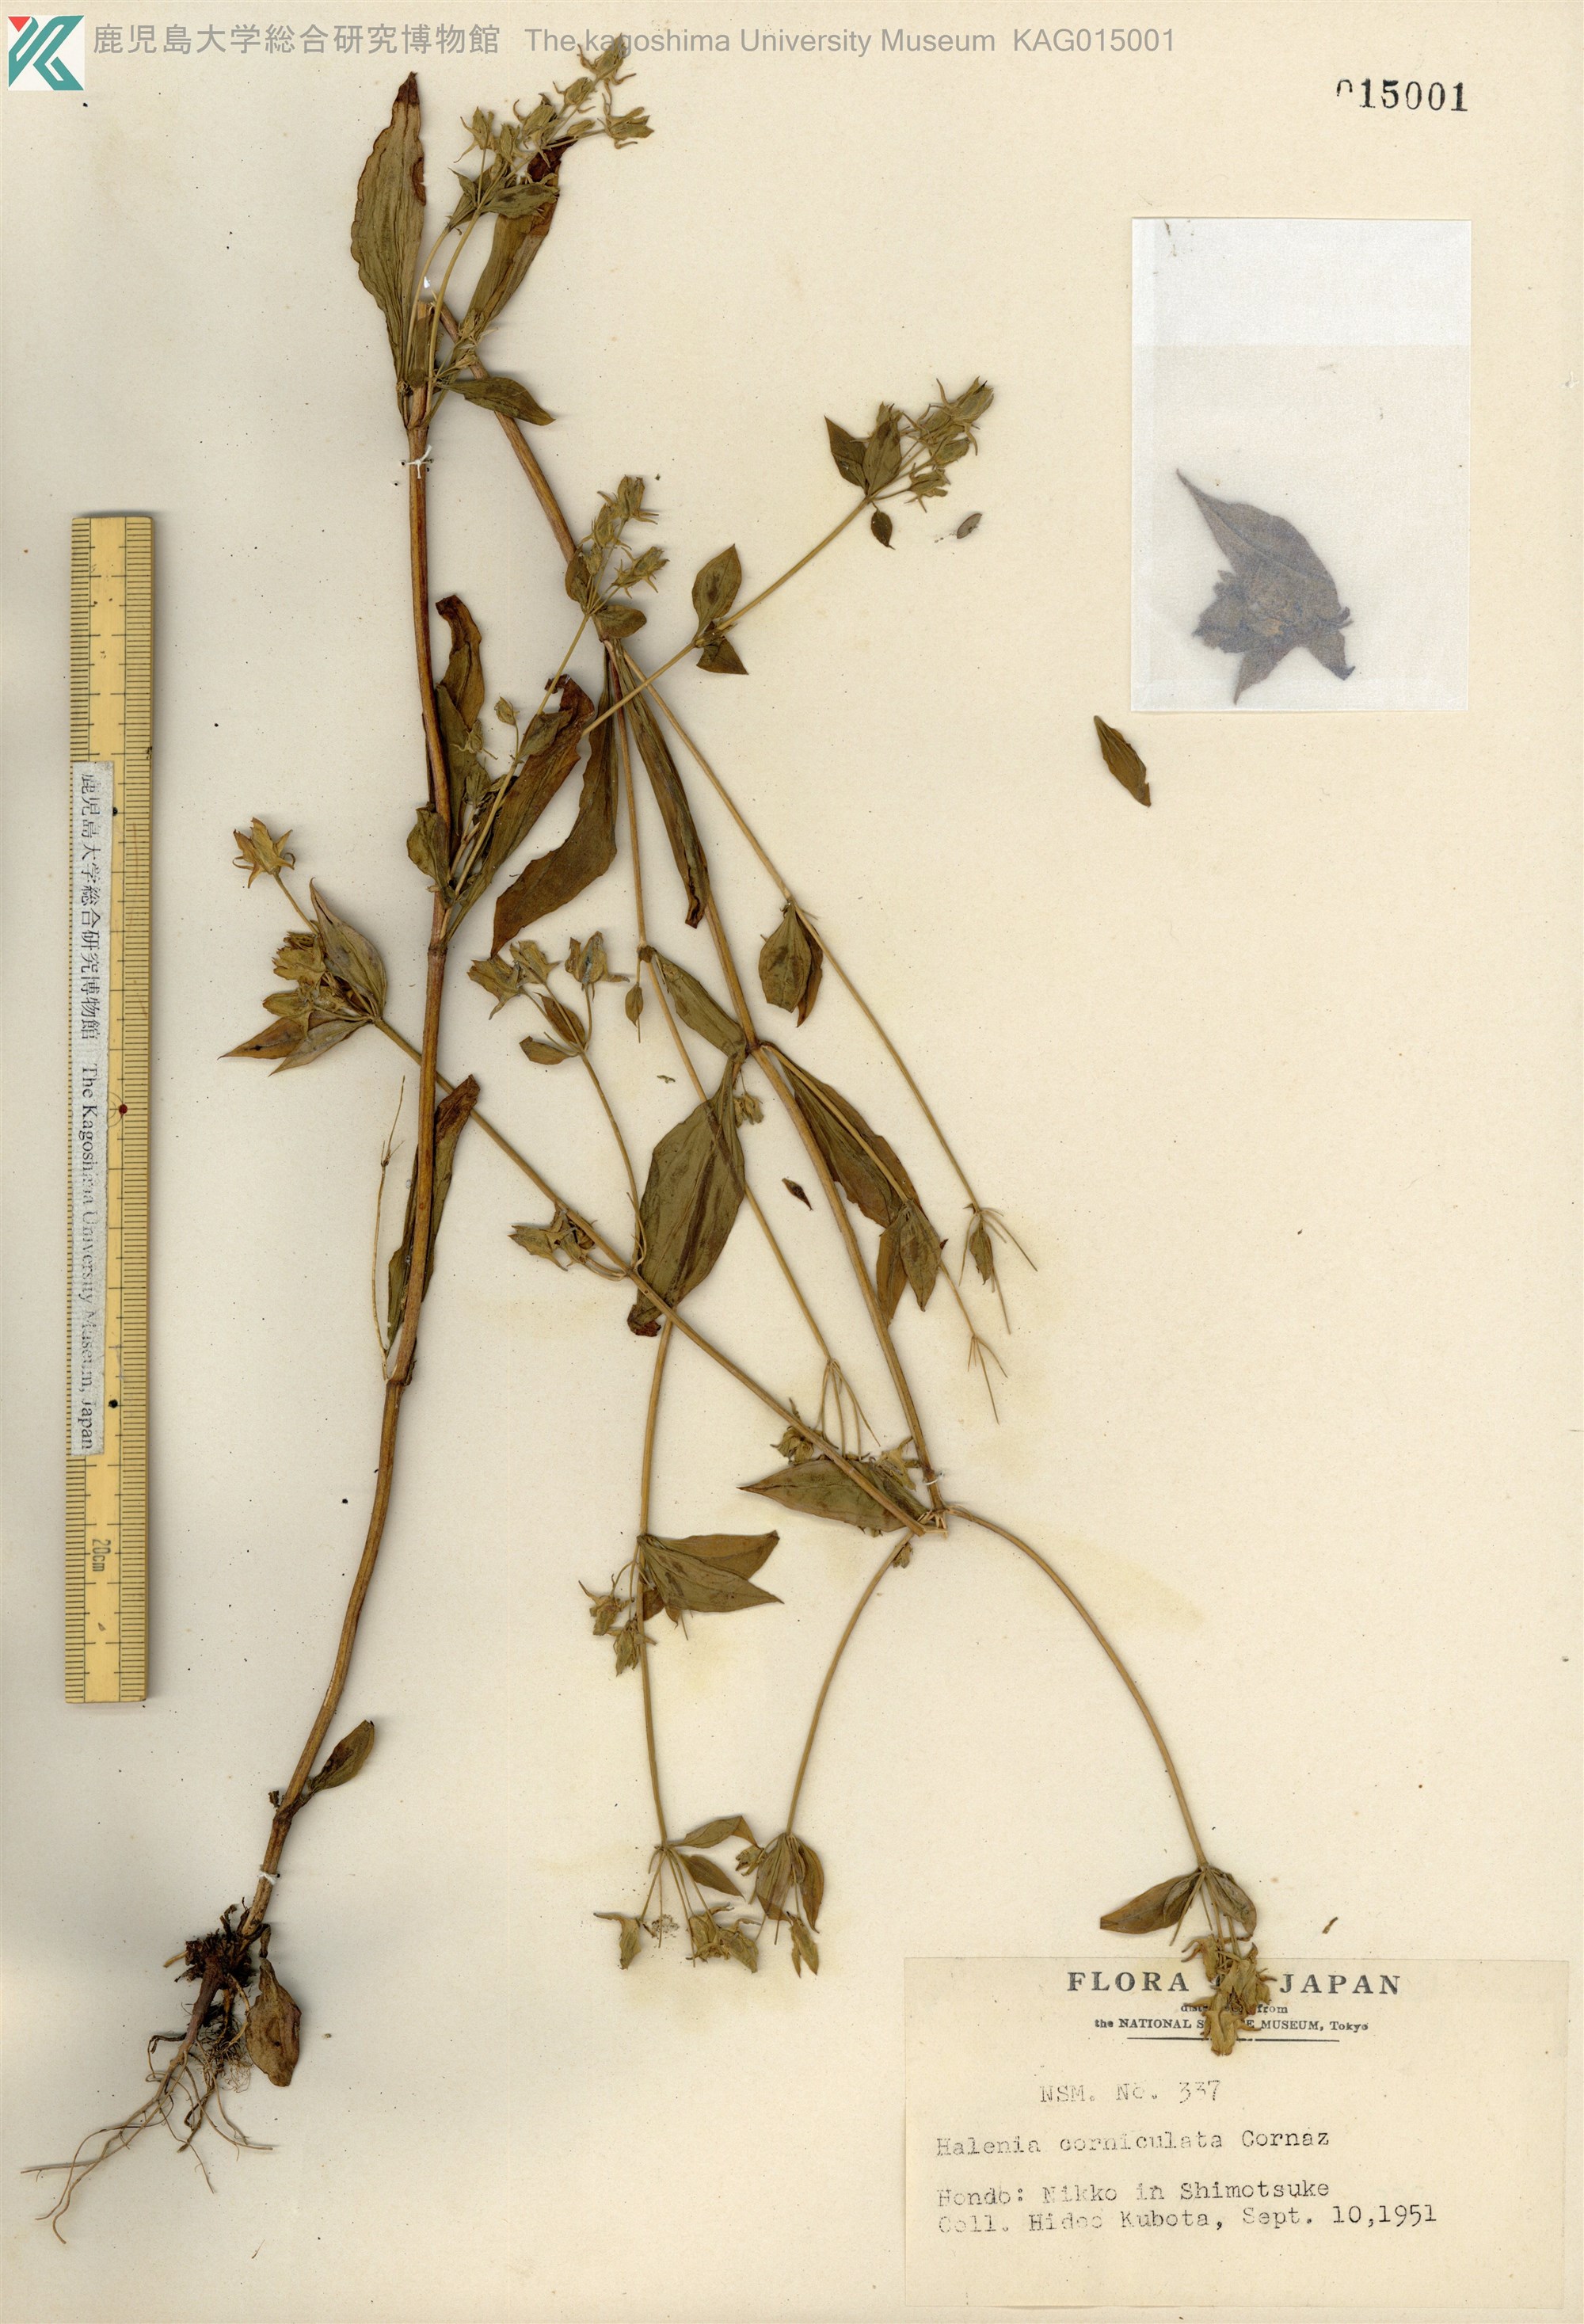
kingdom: Plantae
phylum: Tracheophyta
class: Magnoliopsida
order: Gentianales
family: Gentianaceae
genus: Halenia
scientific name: Halenia corniculata
